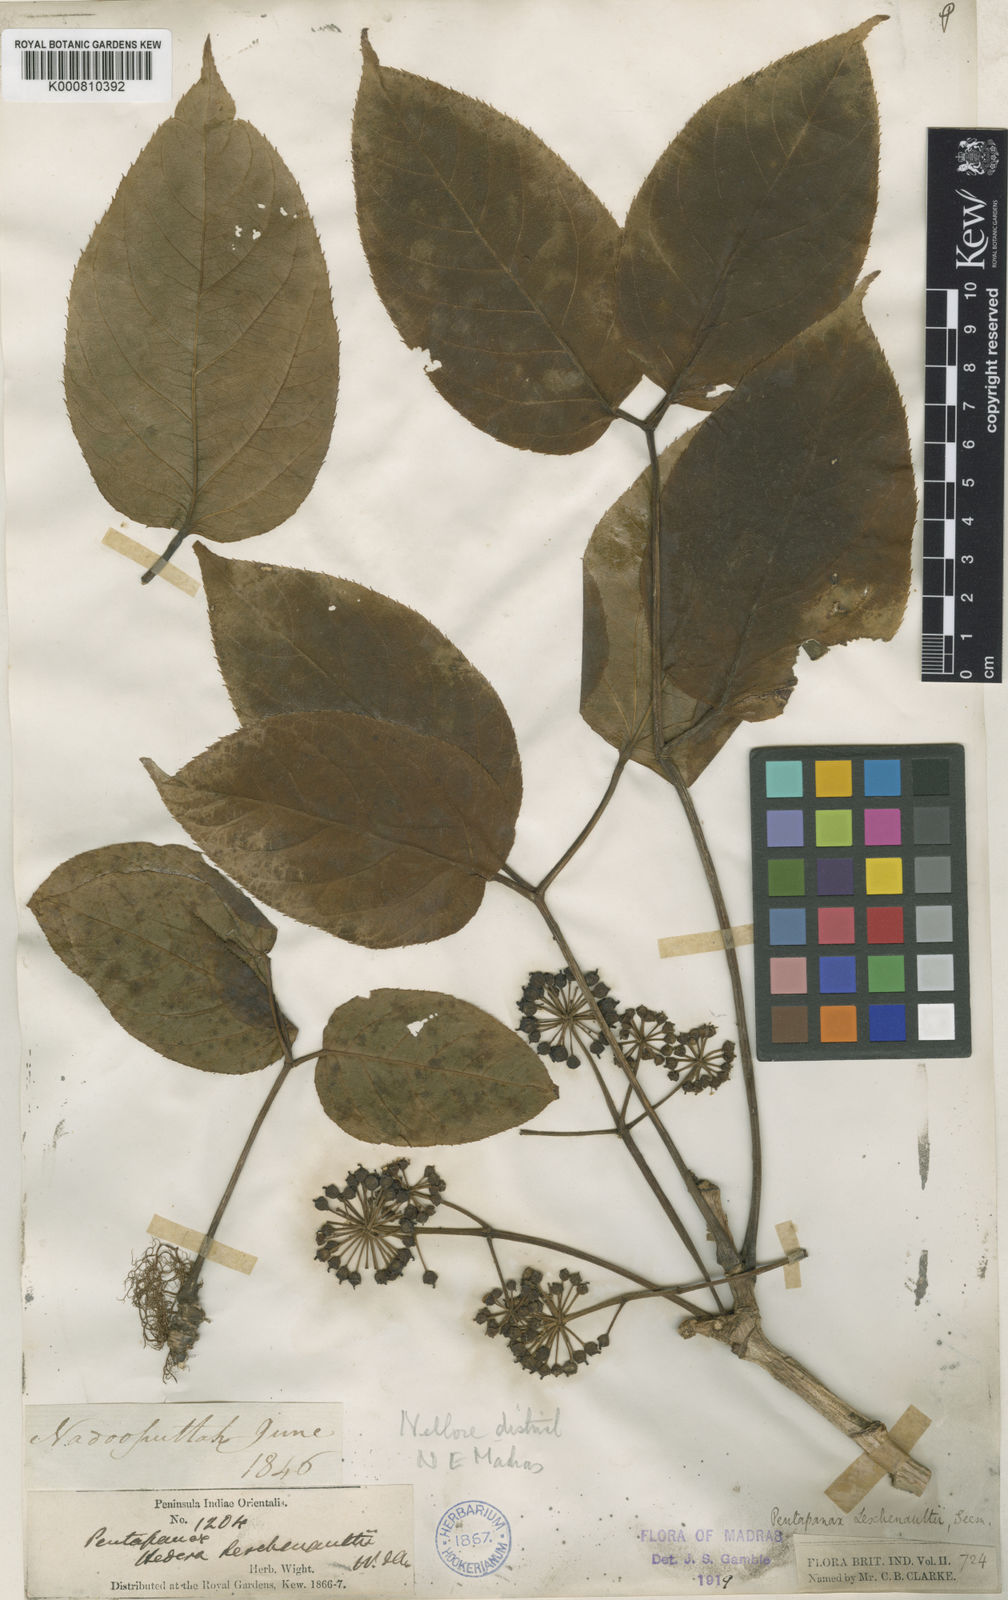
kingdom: Plantae
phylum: Tracheophyta
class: Magnoliopsida
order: Apiales
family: Araliaceae
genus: Aralia
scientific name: Aralia leschenaultii
